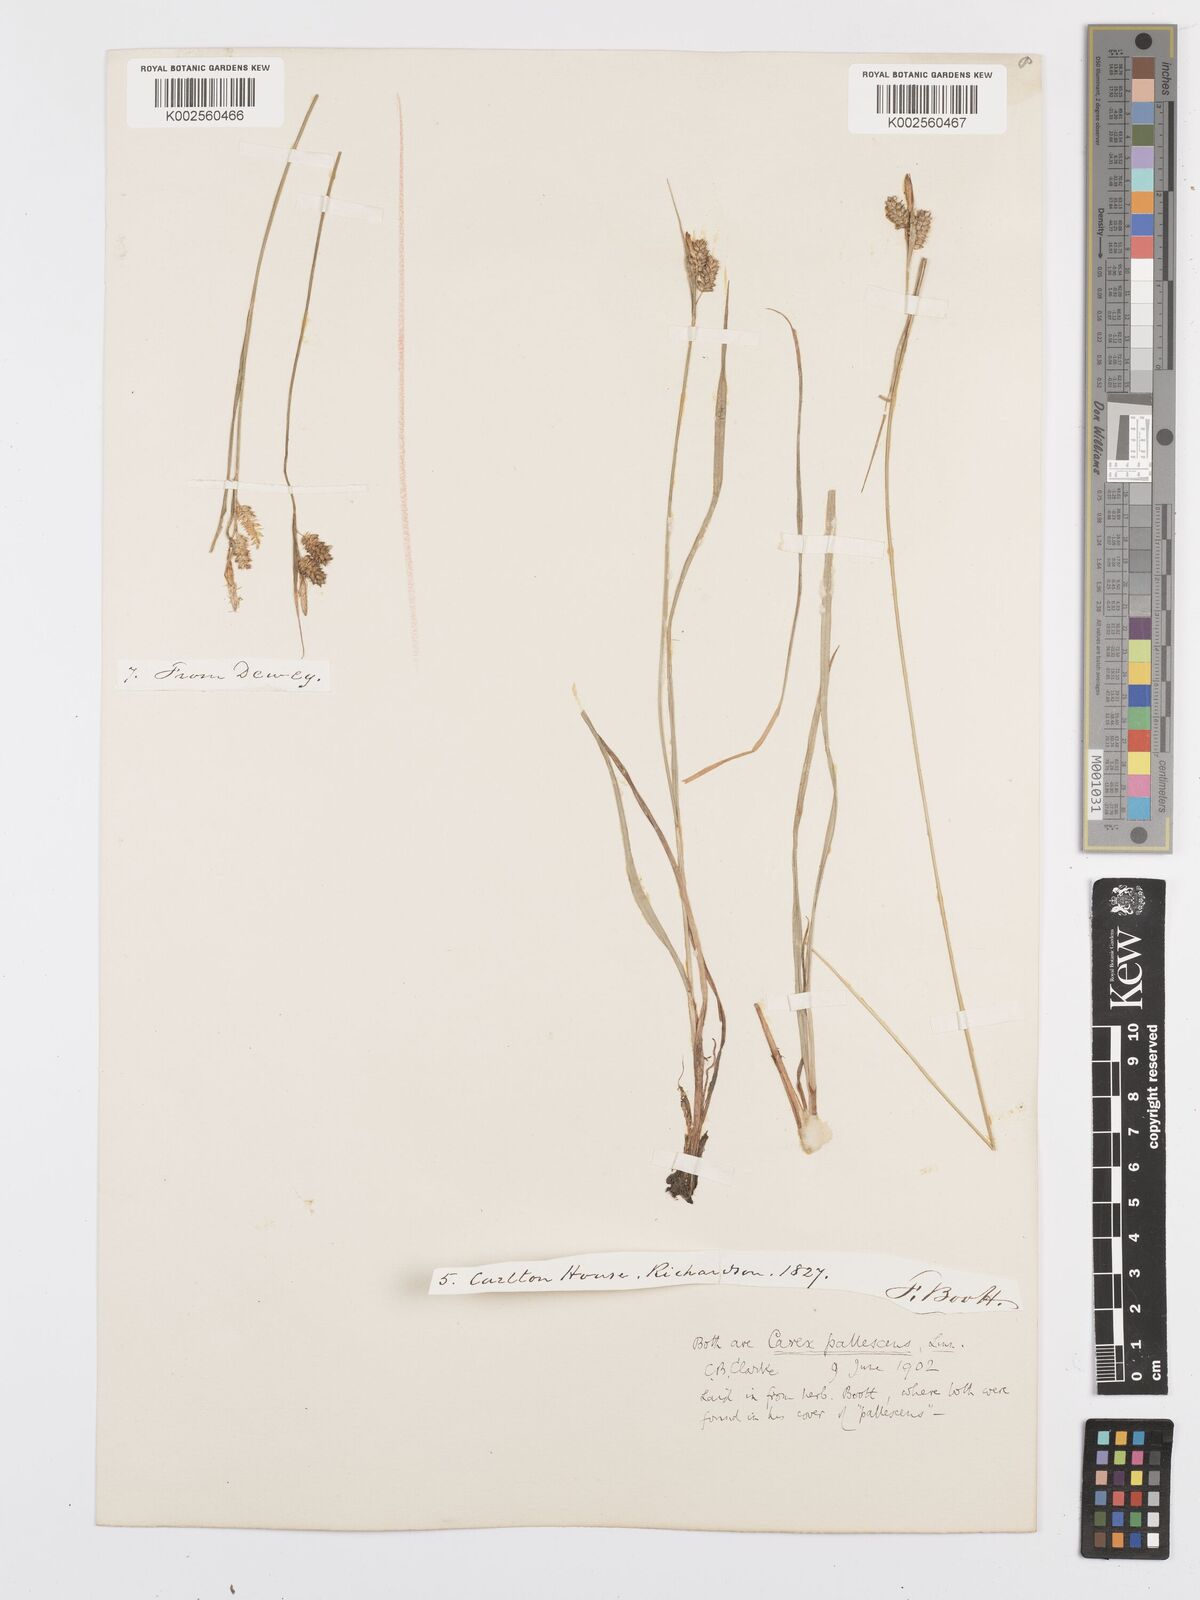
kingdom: Plantae
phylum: Tracheophyta
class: Liliopsida
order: Poales
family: Cyperaceae
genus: Carex
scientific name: Carex pallescens
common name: Pale sedge
